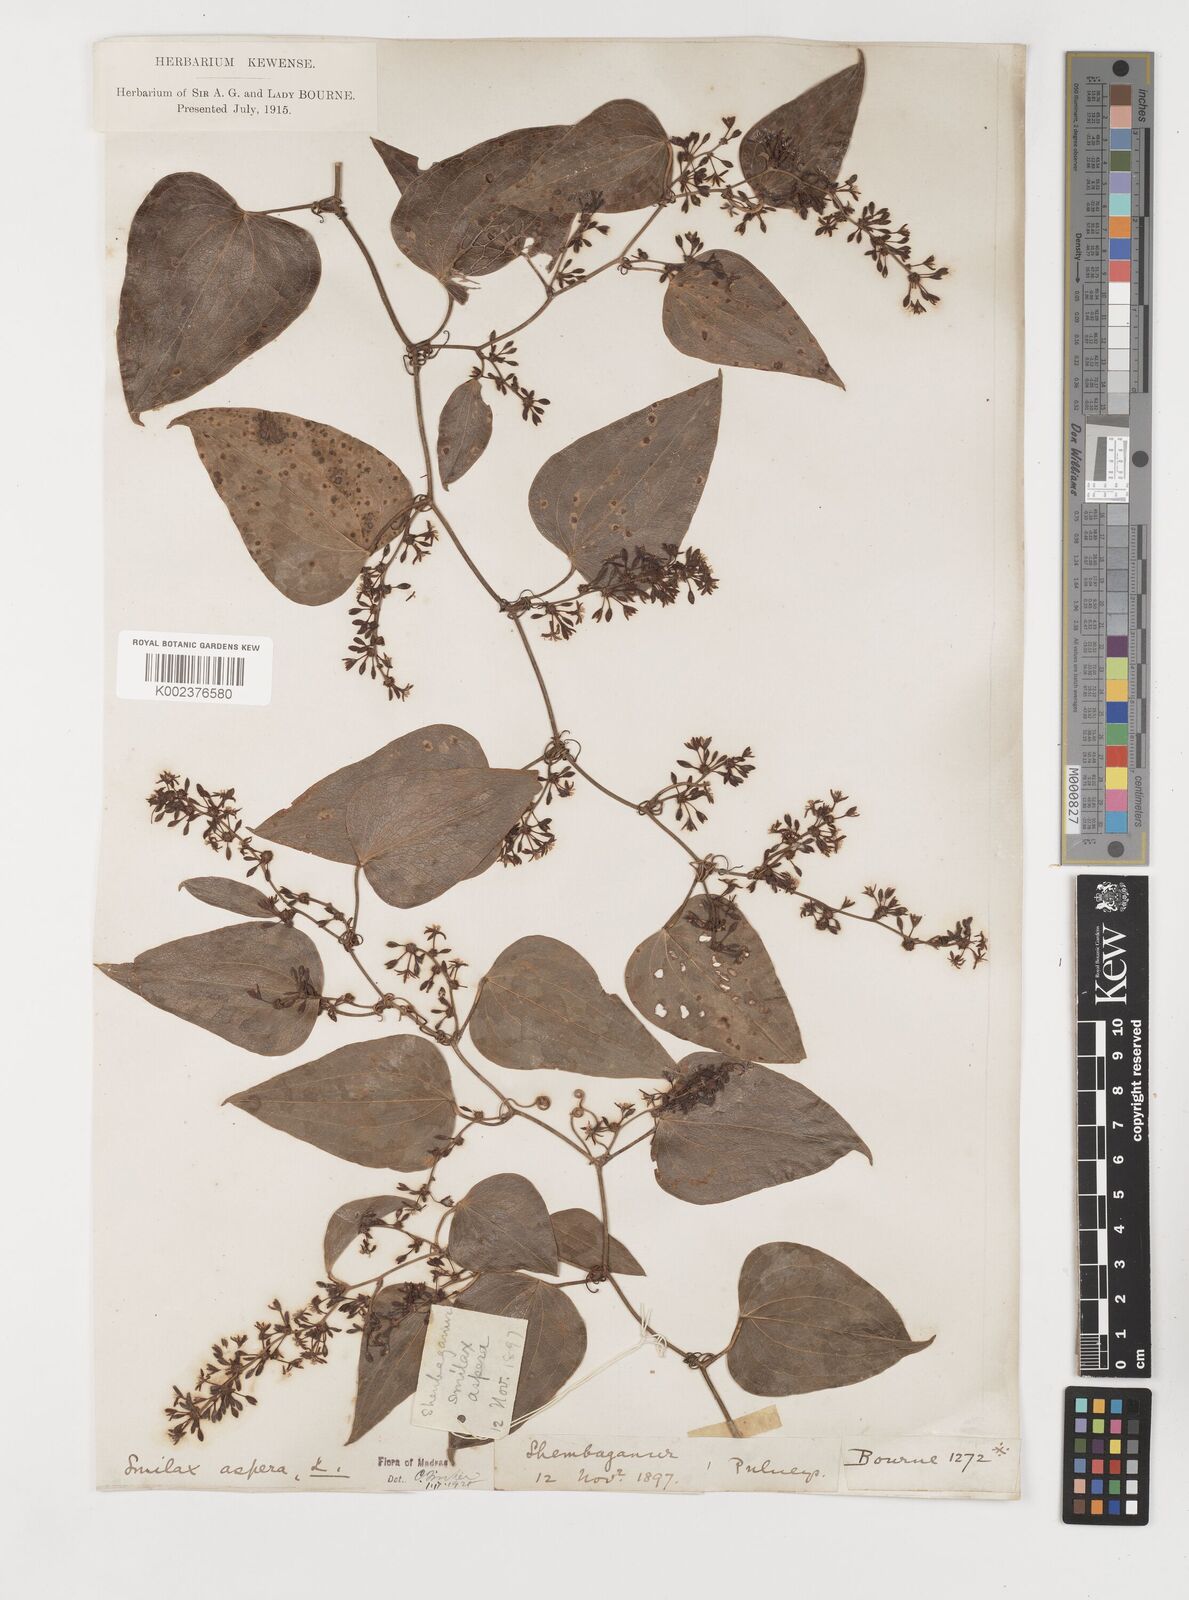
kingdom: Plantae
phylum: Tracheophyta
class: Liliopsida
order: Liliales
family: Smilacaceae
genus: Smilax
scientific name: Smilax aspera
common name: Common smilax
